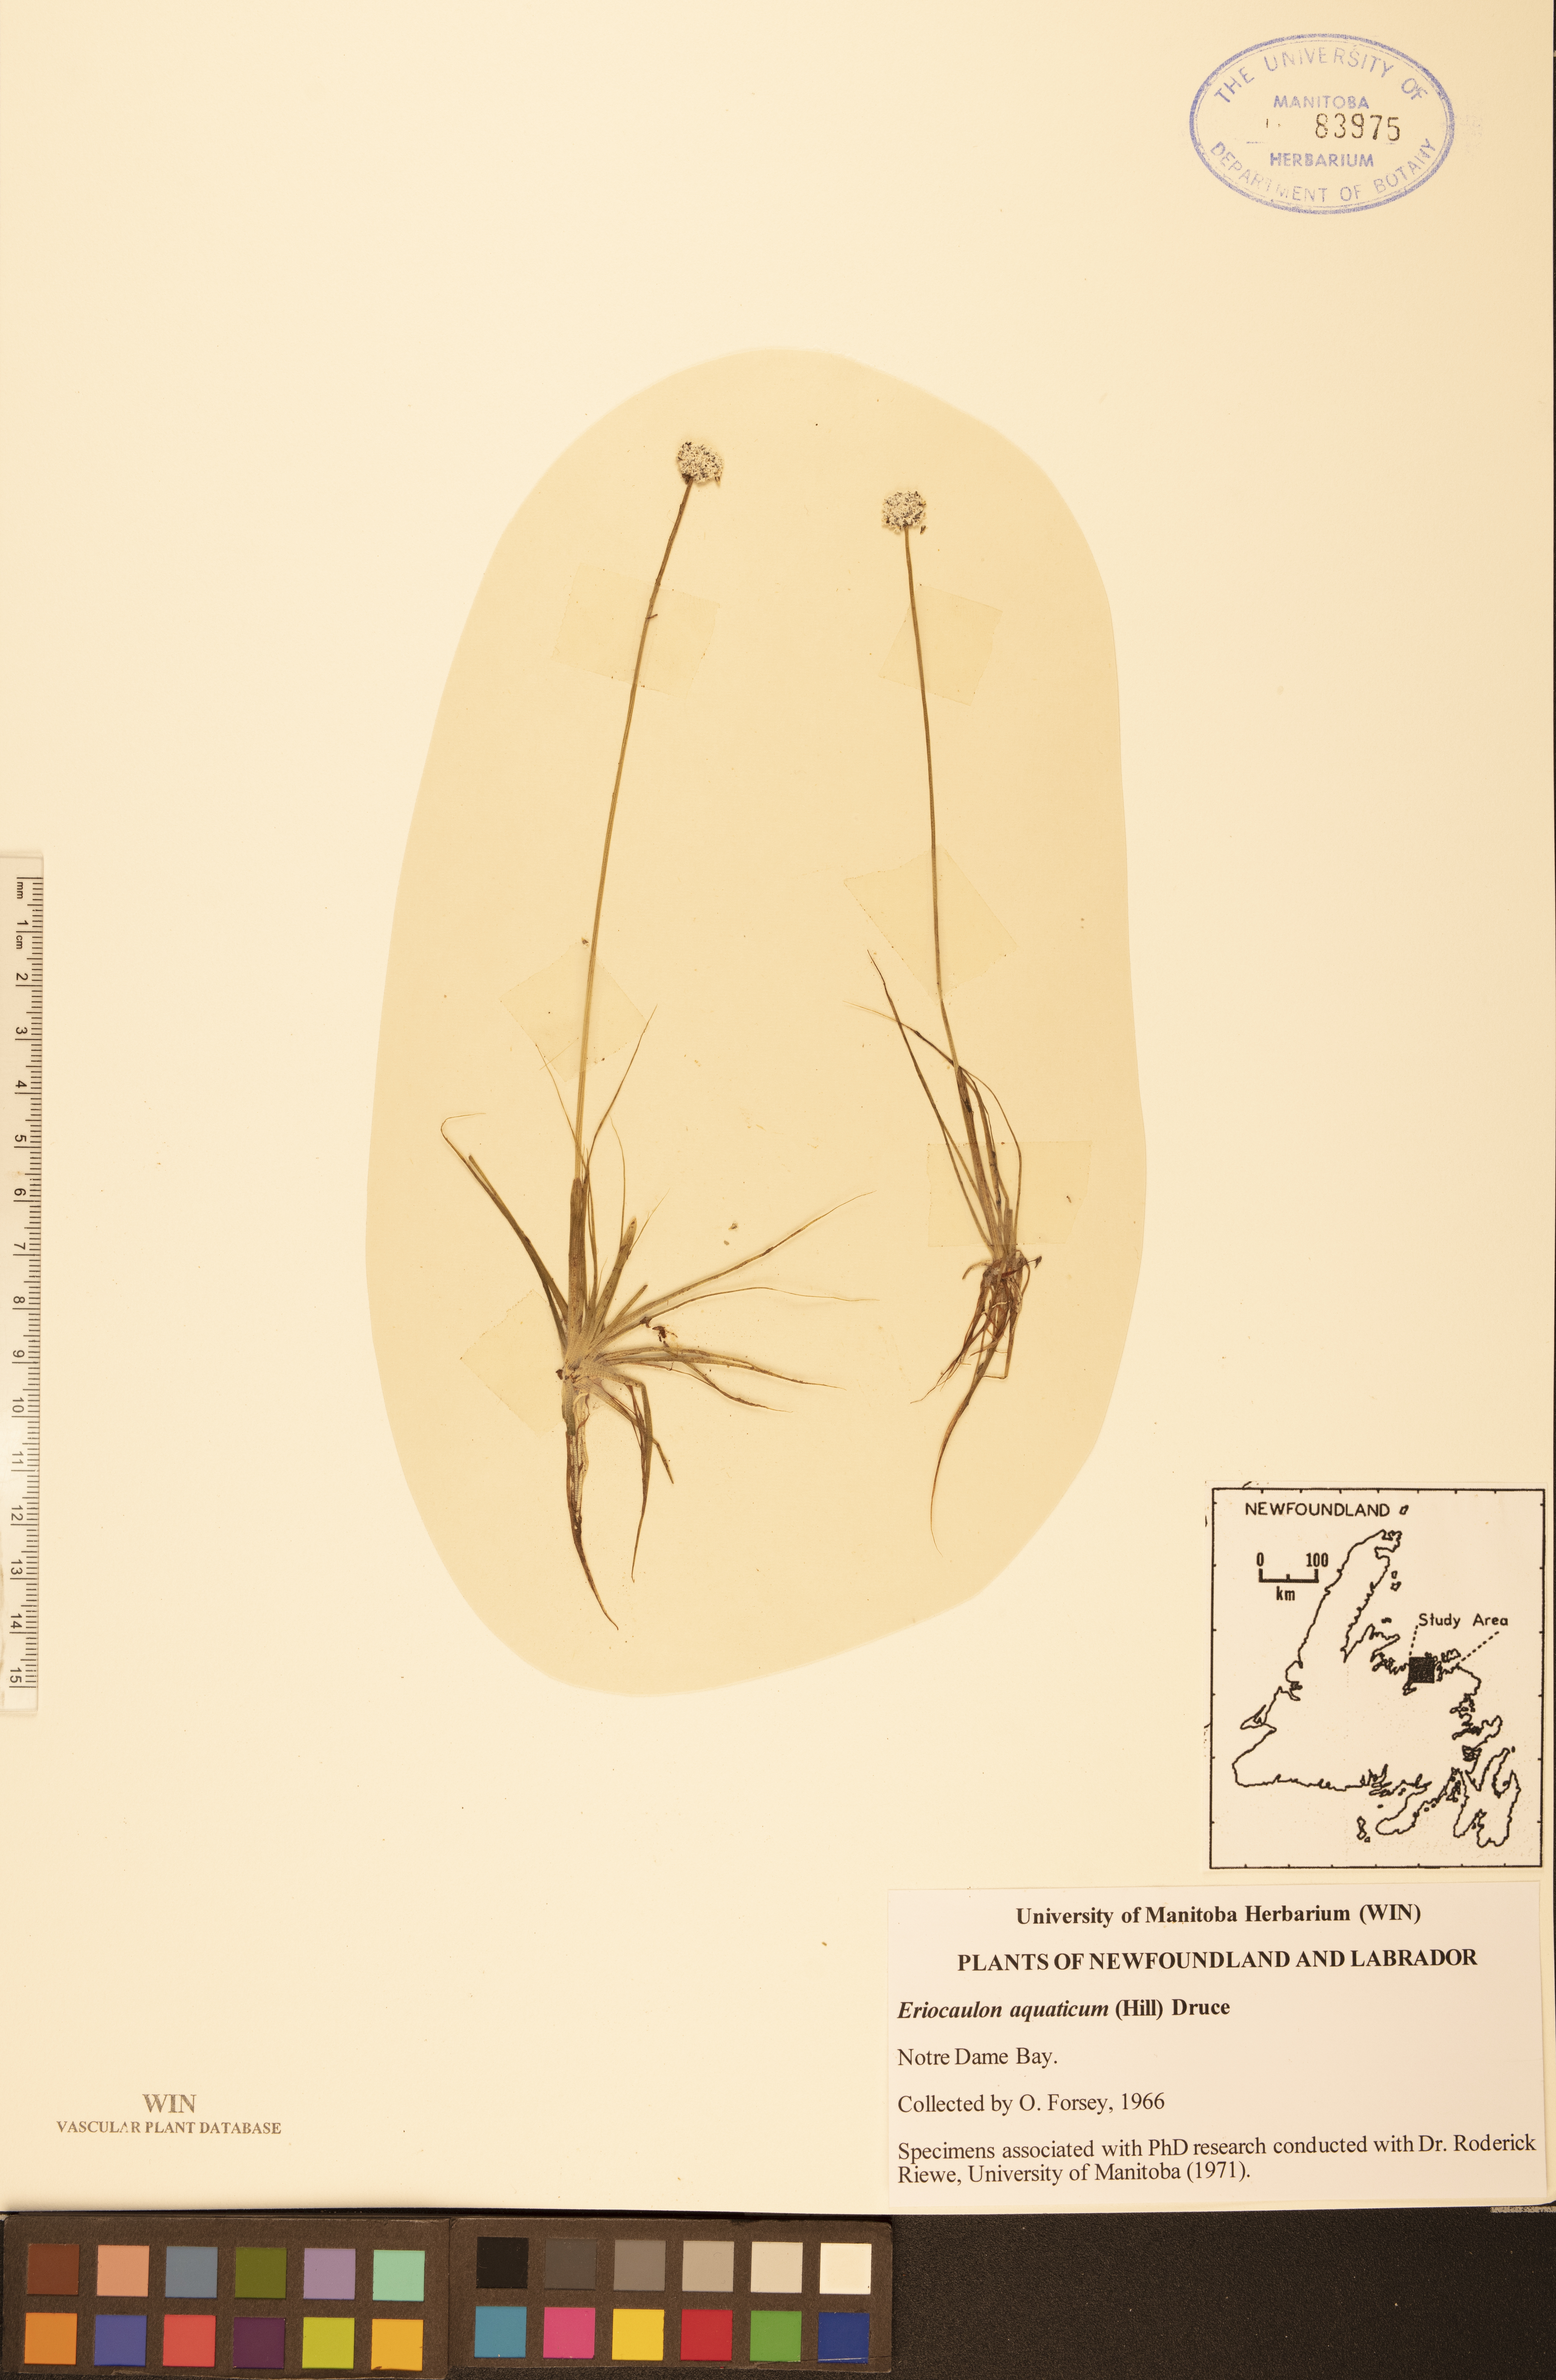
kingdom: Plantae
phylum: Tracheophyta
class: Liliopsida
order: Poales
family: Eriocaulaceae
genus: Eriocaulon
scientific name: Eriocaulon aquaticum
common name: Pipewort
